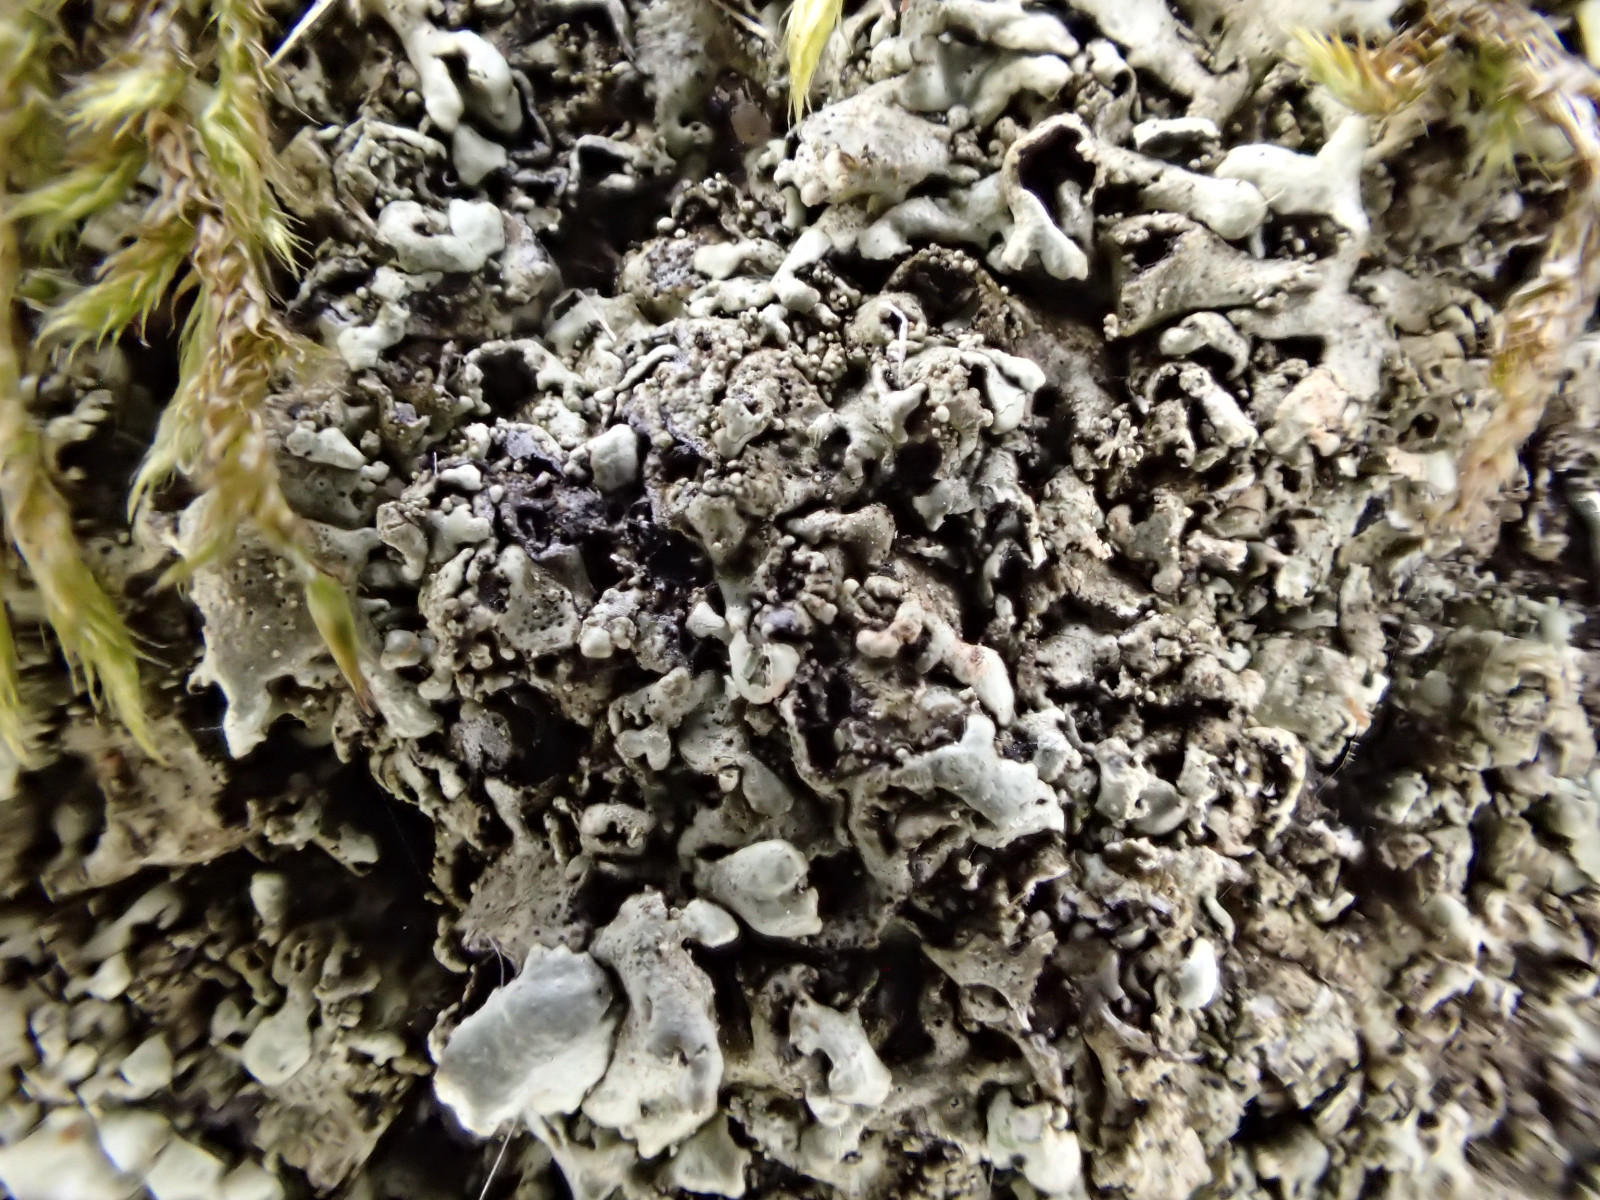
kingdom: Fungi
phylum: Ascomycota
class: Lecanoromycetes
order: Lecanorales
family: Parmeliaceae
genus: Xanthoparmelia
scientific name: Xanthoparmelia conspersa
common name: messing-skållav
